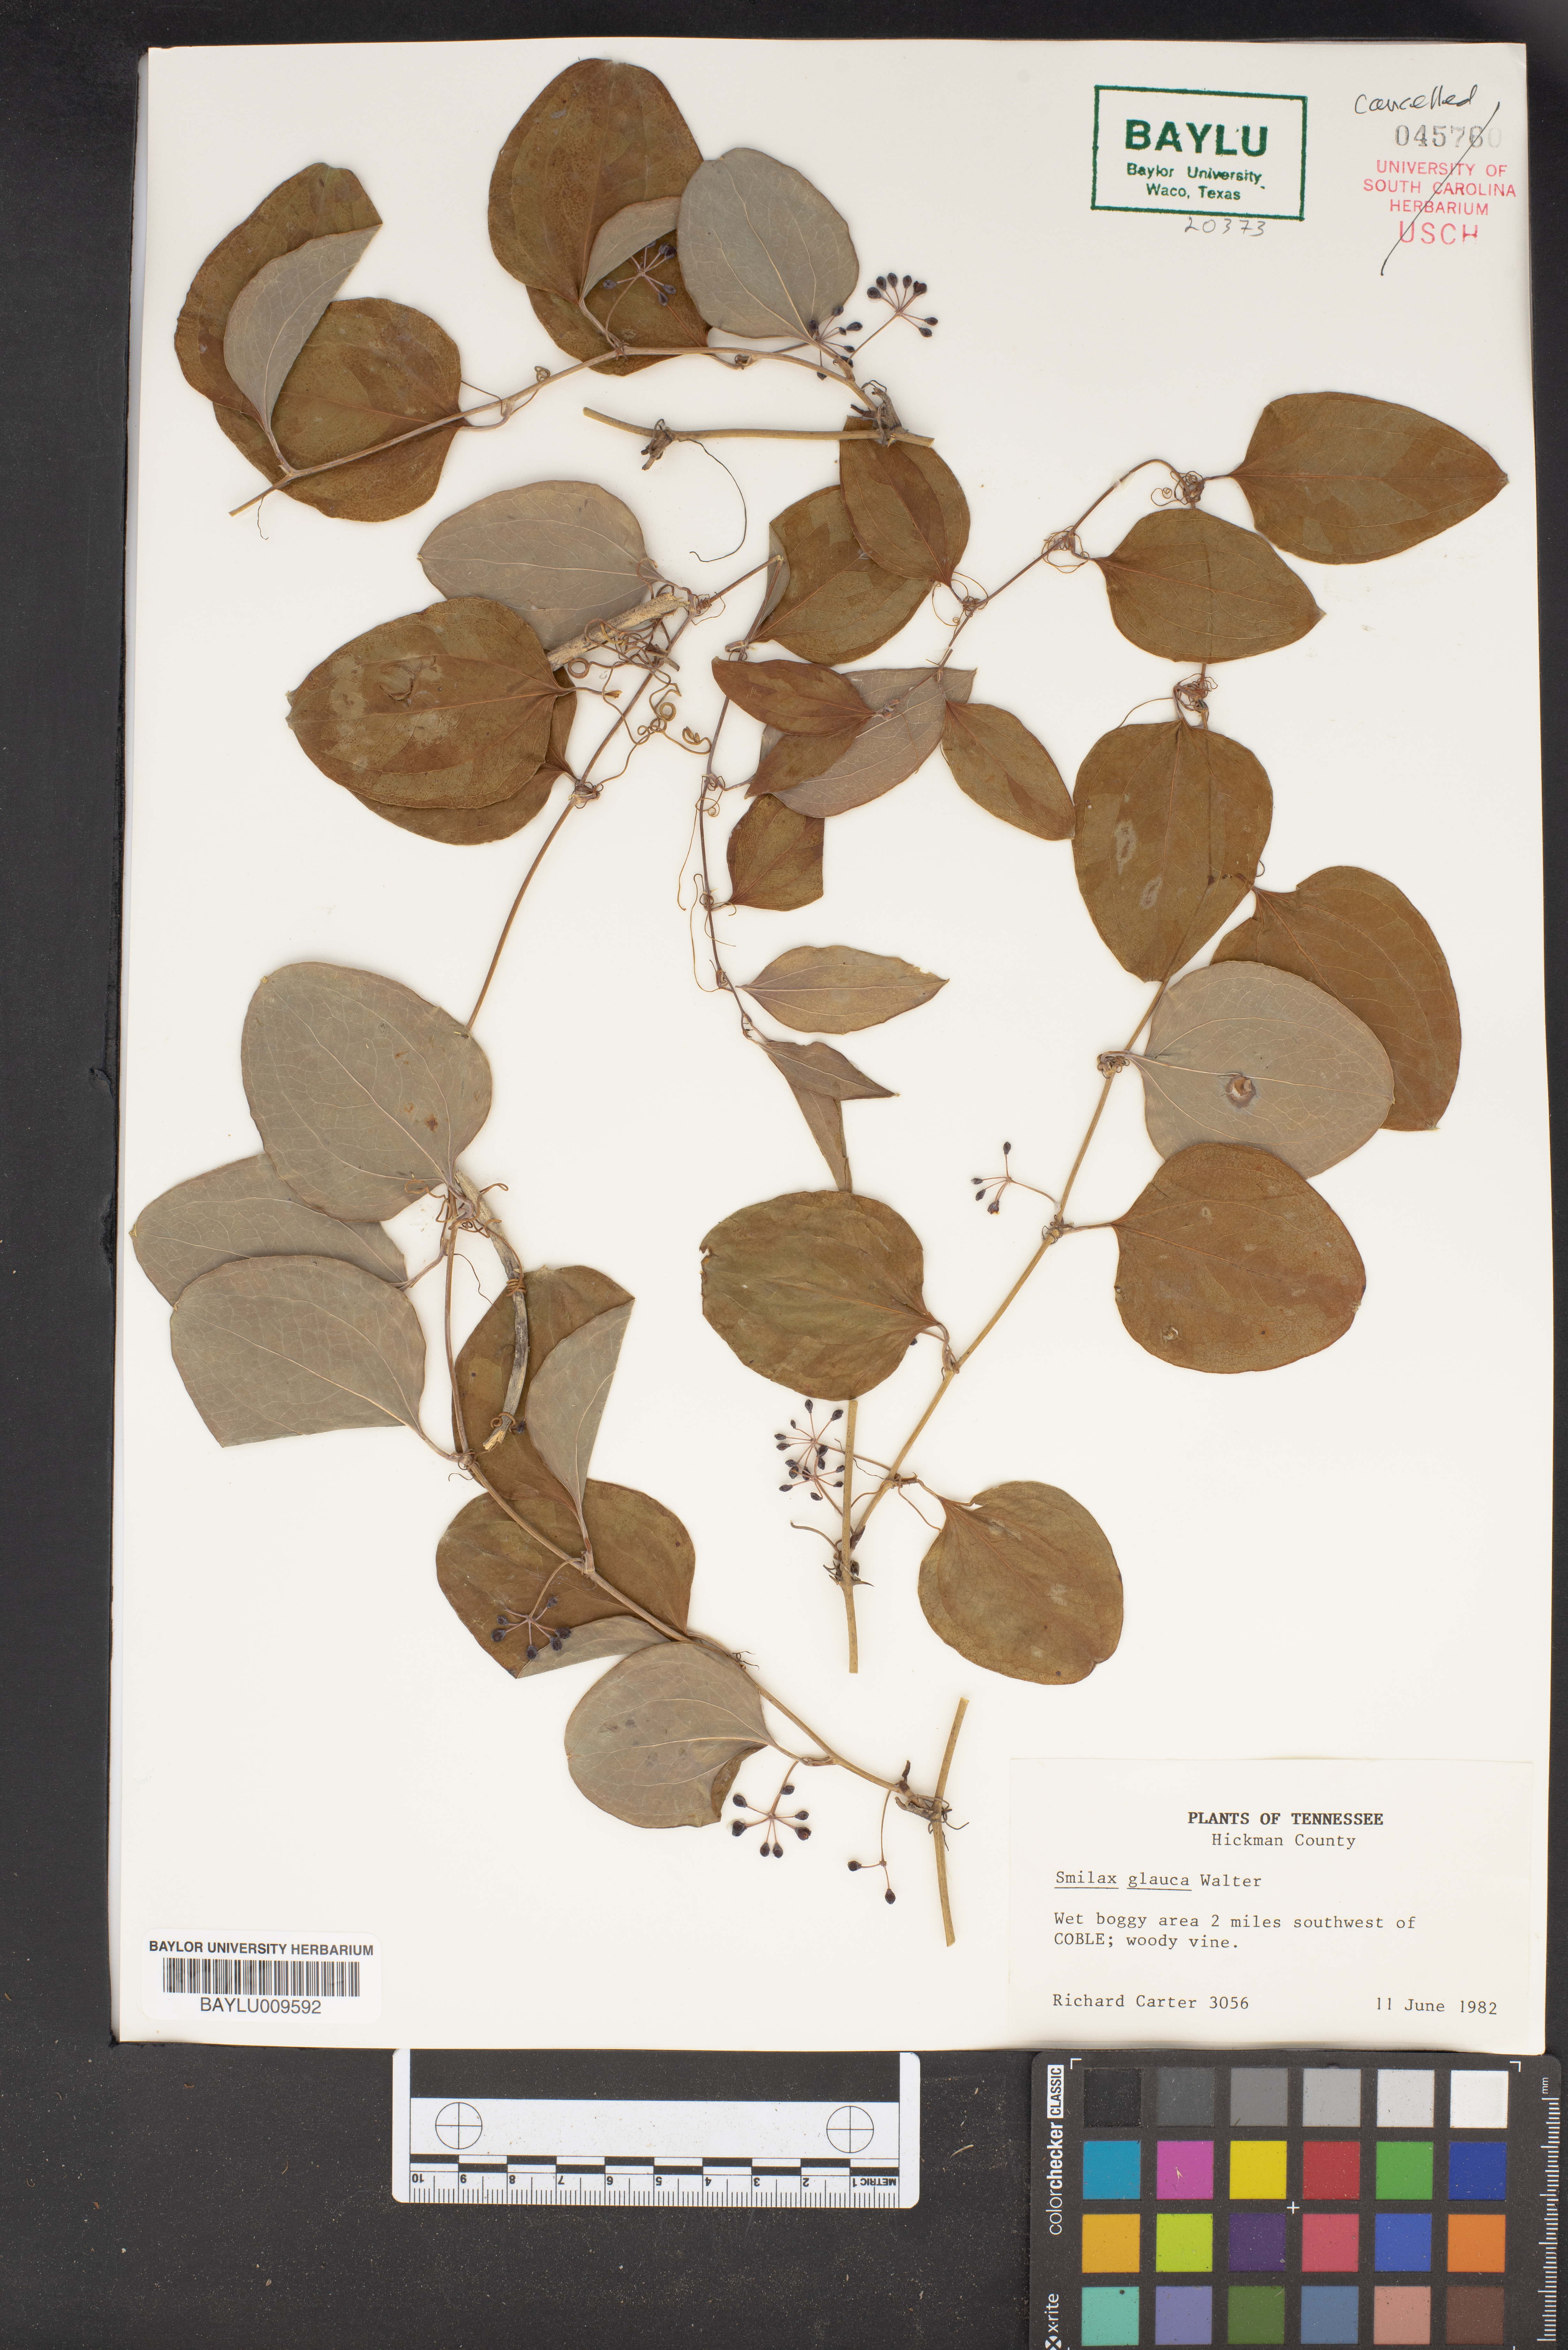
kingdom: Plantae
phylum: Tracheophyta
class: Liliopsida
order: Liliales
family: Smilacaceae
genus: Smilax
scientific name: Smilax glauca
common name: Cat greenbrier
